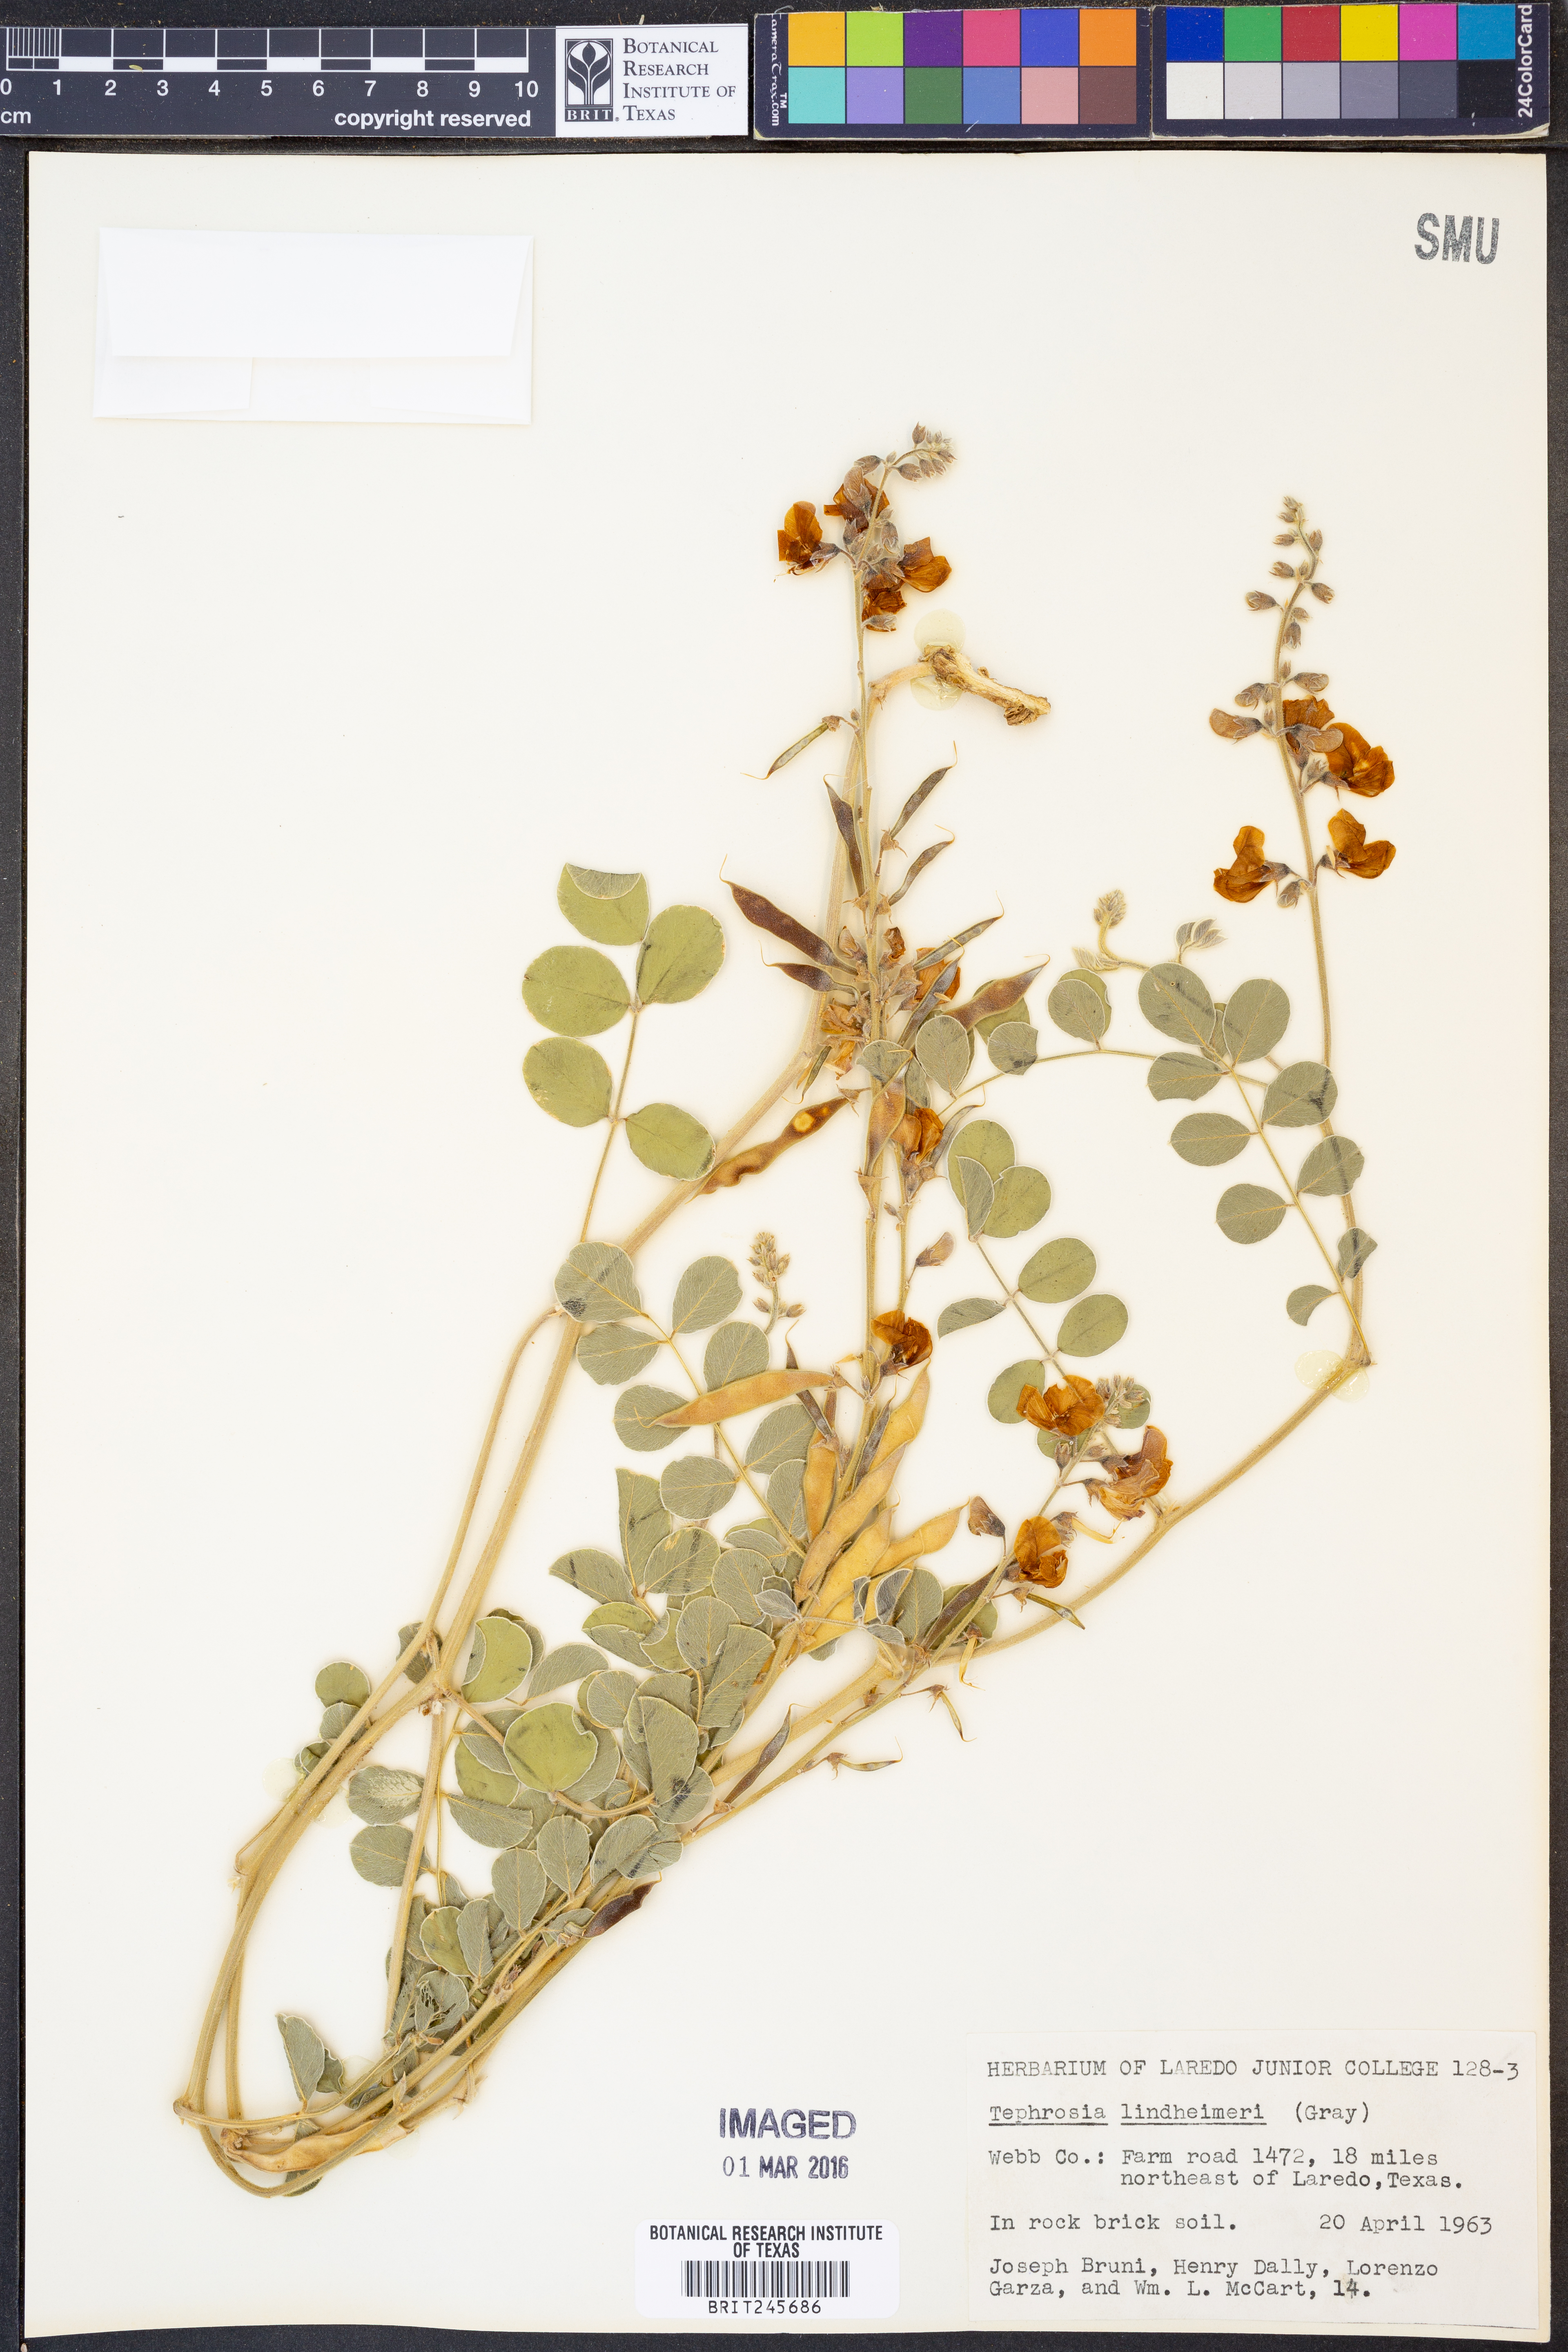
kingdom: Plantae
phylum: Tracheophyta
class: Magnoliopsida
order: Fabales
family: Fabaceae
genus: Tephrosia
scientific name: Tephrosia lindheimeri
